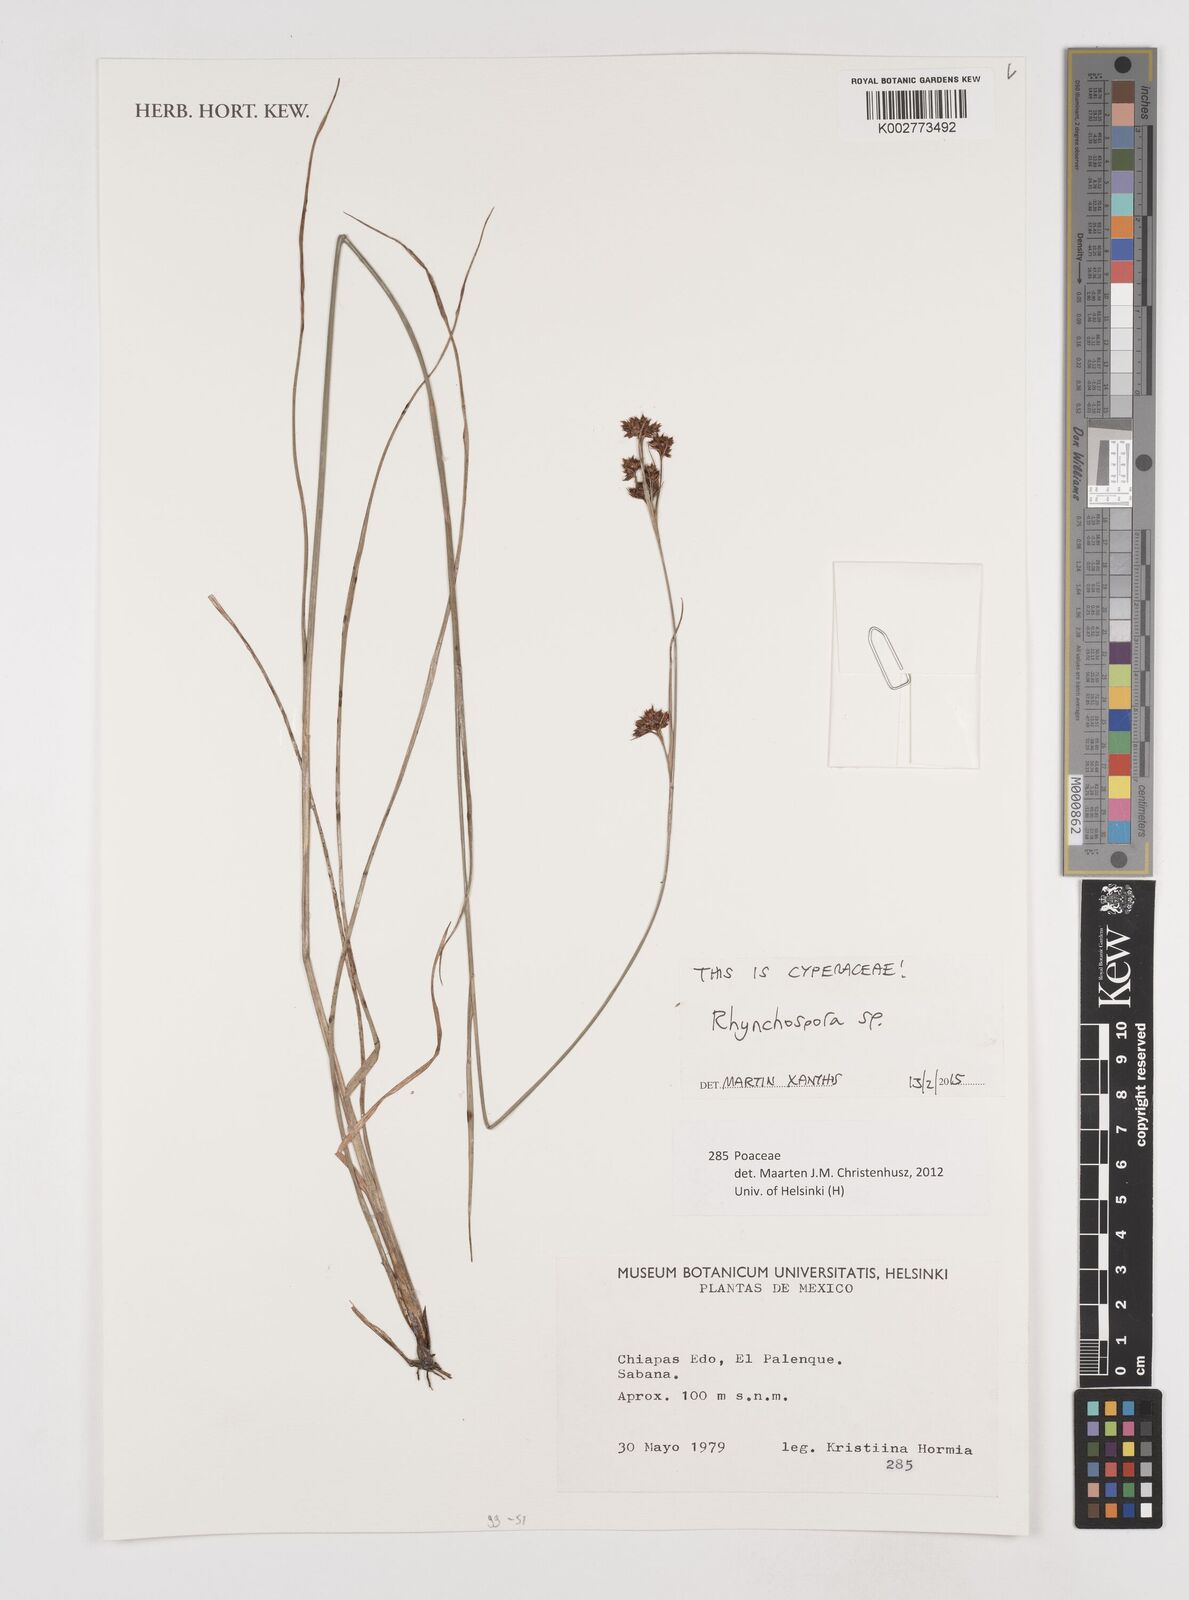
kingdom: Plantae
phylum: Tracheophyta
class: Liliopsida
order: Poales
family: Cyperaceae
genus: Rhynchospora
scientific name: Rhynchospora
